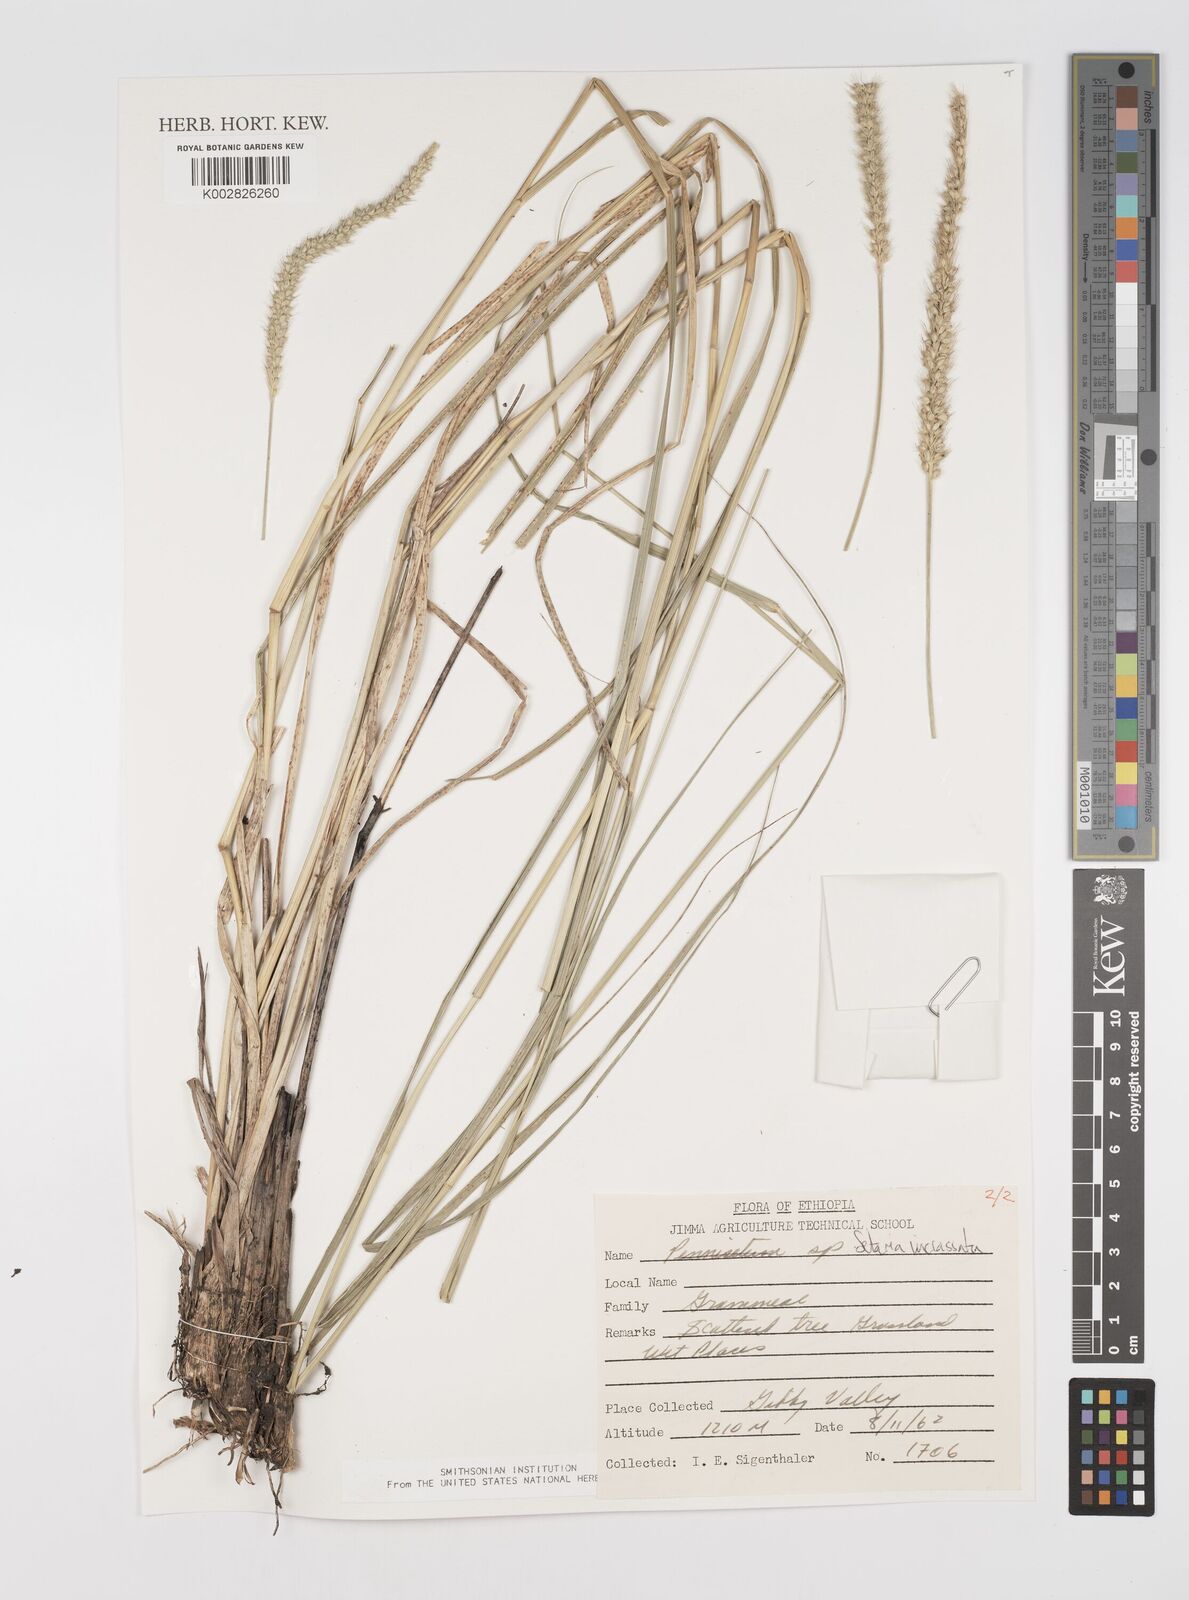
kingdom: Plantae
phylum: Tracheophyta
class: Liliopsida
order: Poales
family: Poaceae
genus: Setaria
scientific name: Setaria incrassata
